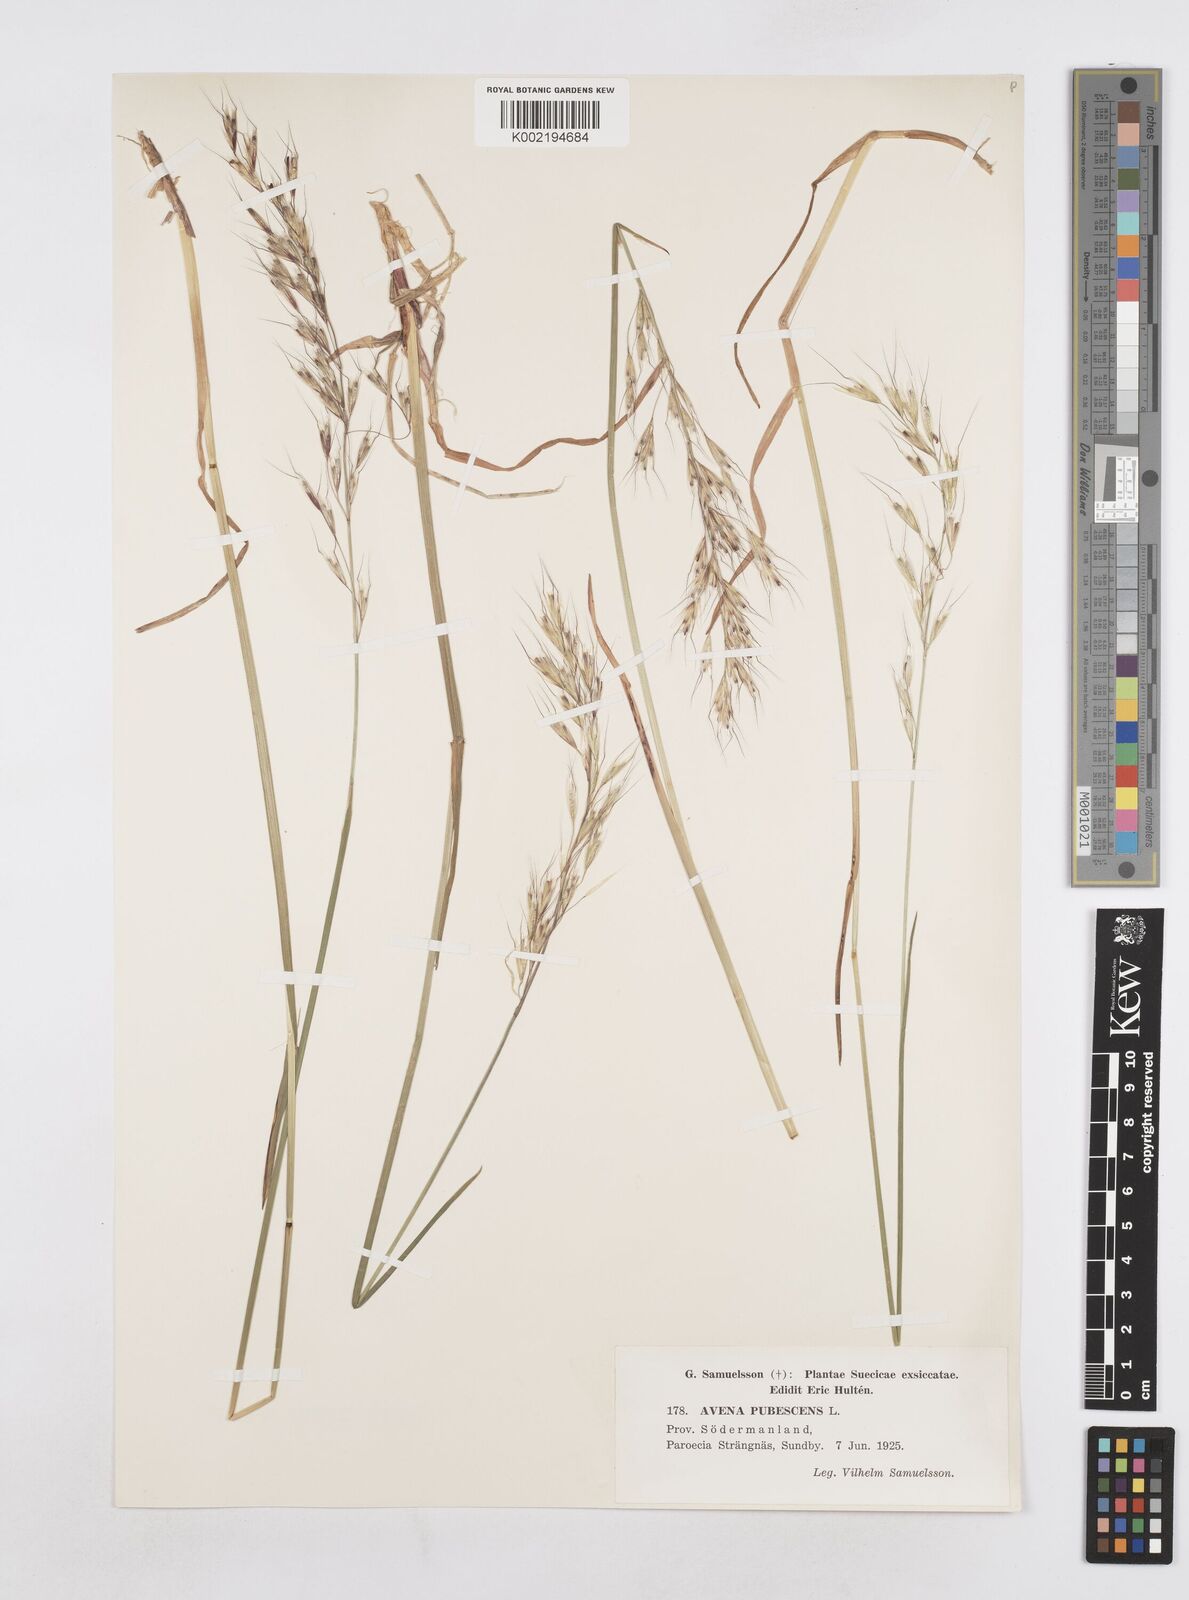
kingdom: Plantae
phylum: Tracheophyta
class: Liliopsida
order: Poales
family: Poaceae
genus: Avenula
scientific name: Avenula pubescens
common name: Downy alpine oatgrass
